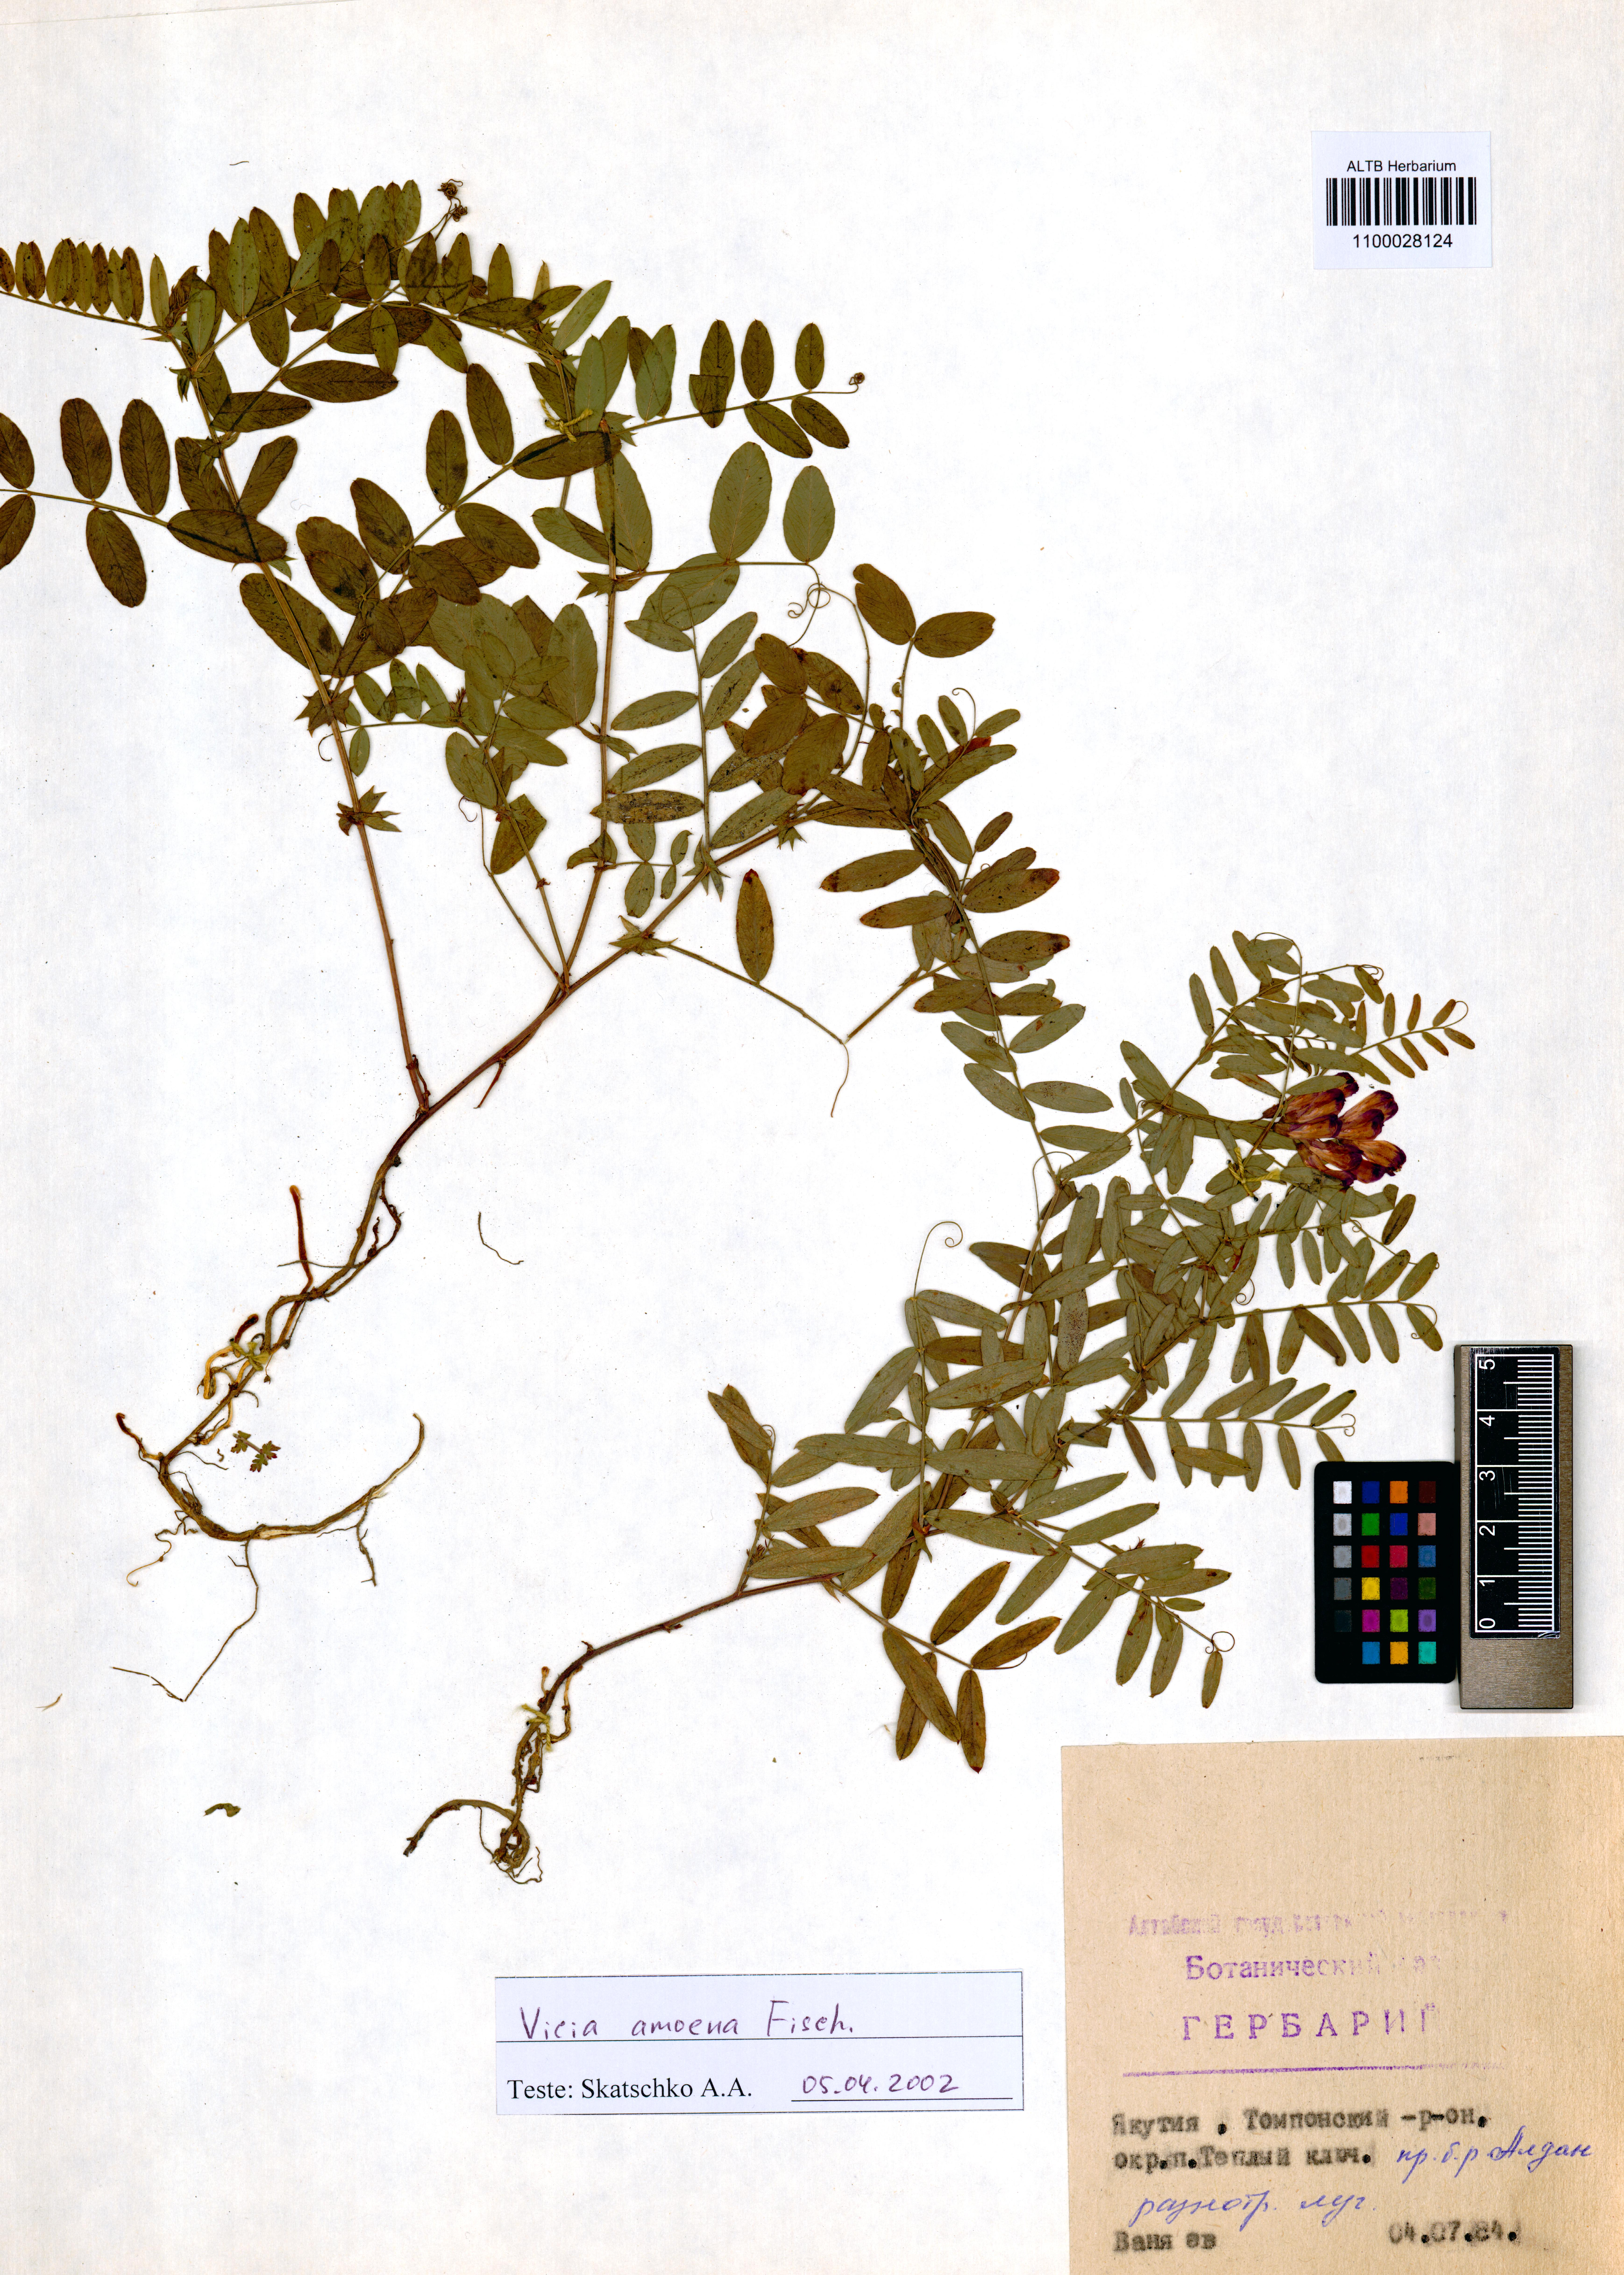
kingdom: Plantae
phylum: Tracheophyta
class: Magnoliopsida
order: Fabales
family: Fabaceae
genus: Vicia
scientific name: Vicia amoena
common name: Cheder ebs
